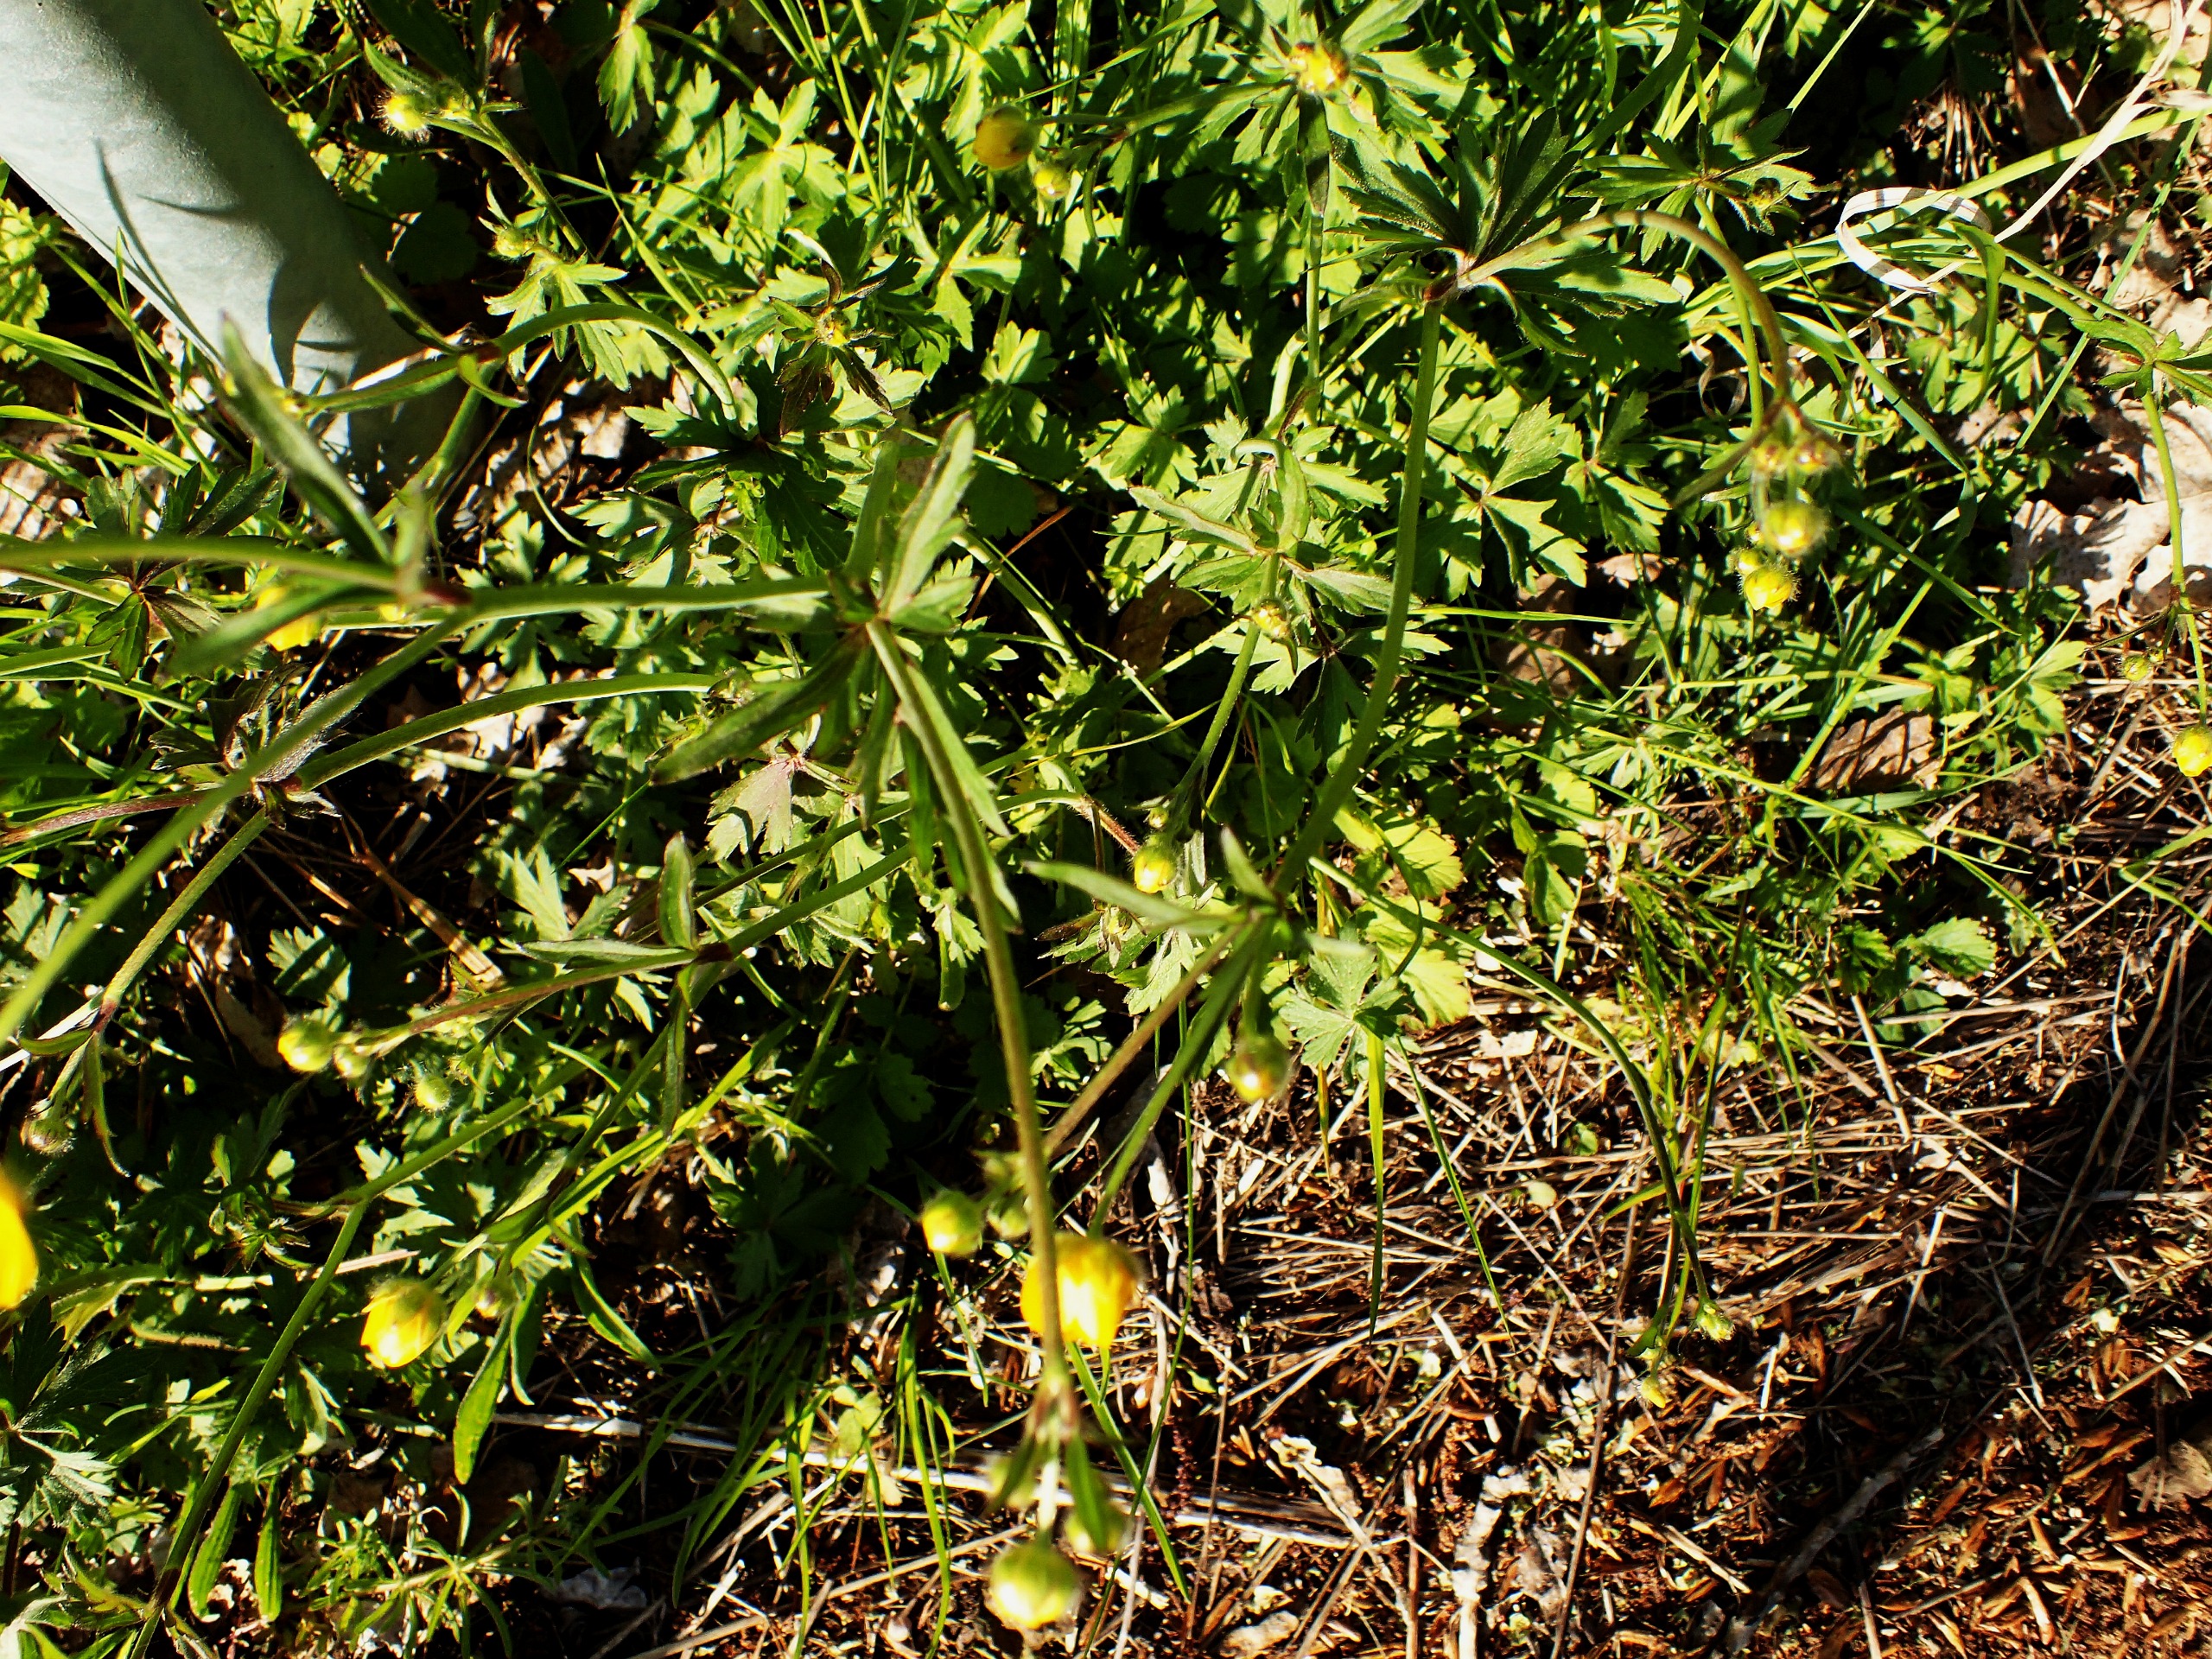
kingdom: Plantae
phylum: Tracheophyta
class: Magnoliopsida
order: Ranunculales
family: Ranunculaceae
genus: Ranunculus
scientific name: Ranunculus acris
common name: Bidende ranunkel
